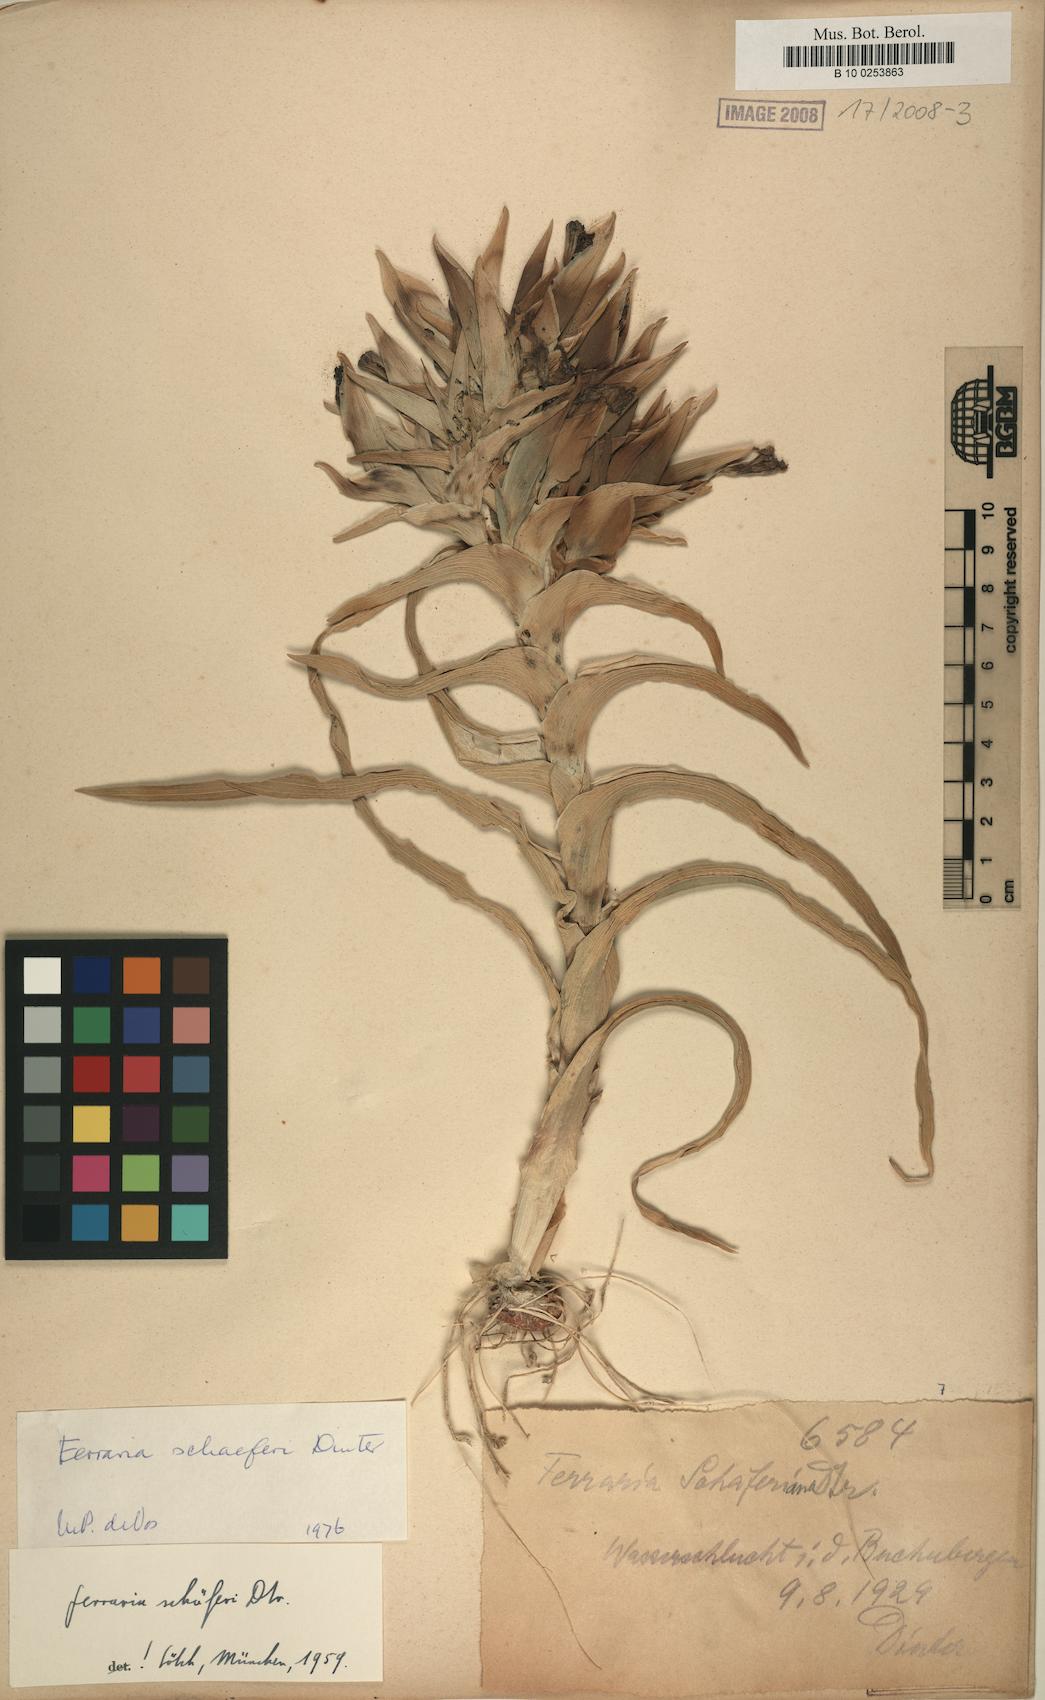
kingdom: Plantae
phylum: Tracheophyta
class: Liliopsida
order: Asparagales
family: Iridaceae
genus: Ferraria
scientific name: Ferraria schaeferi
